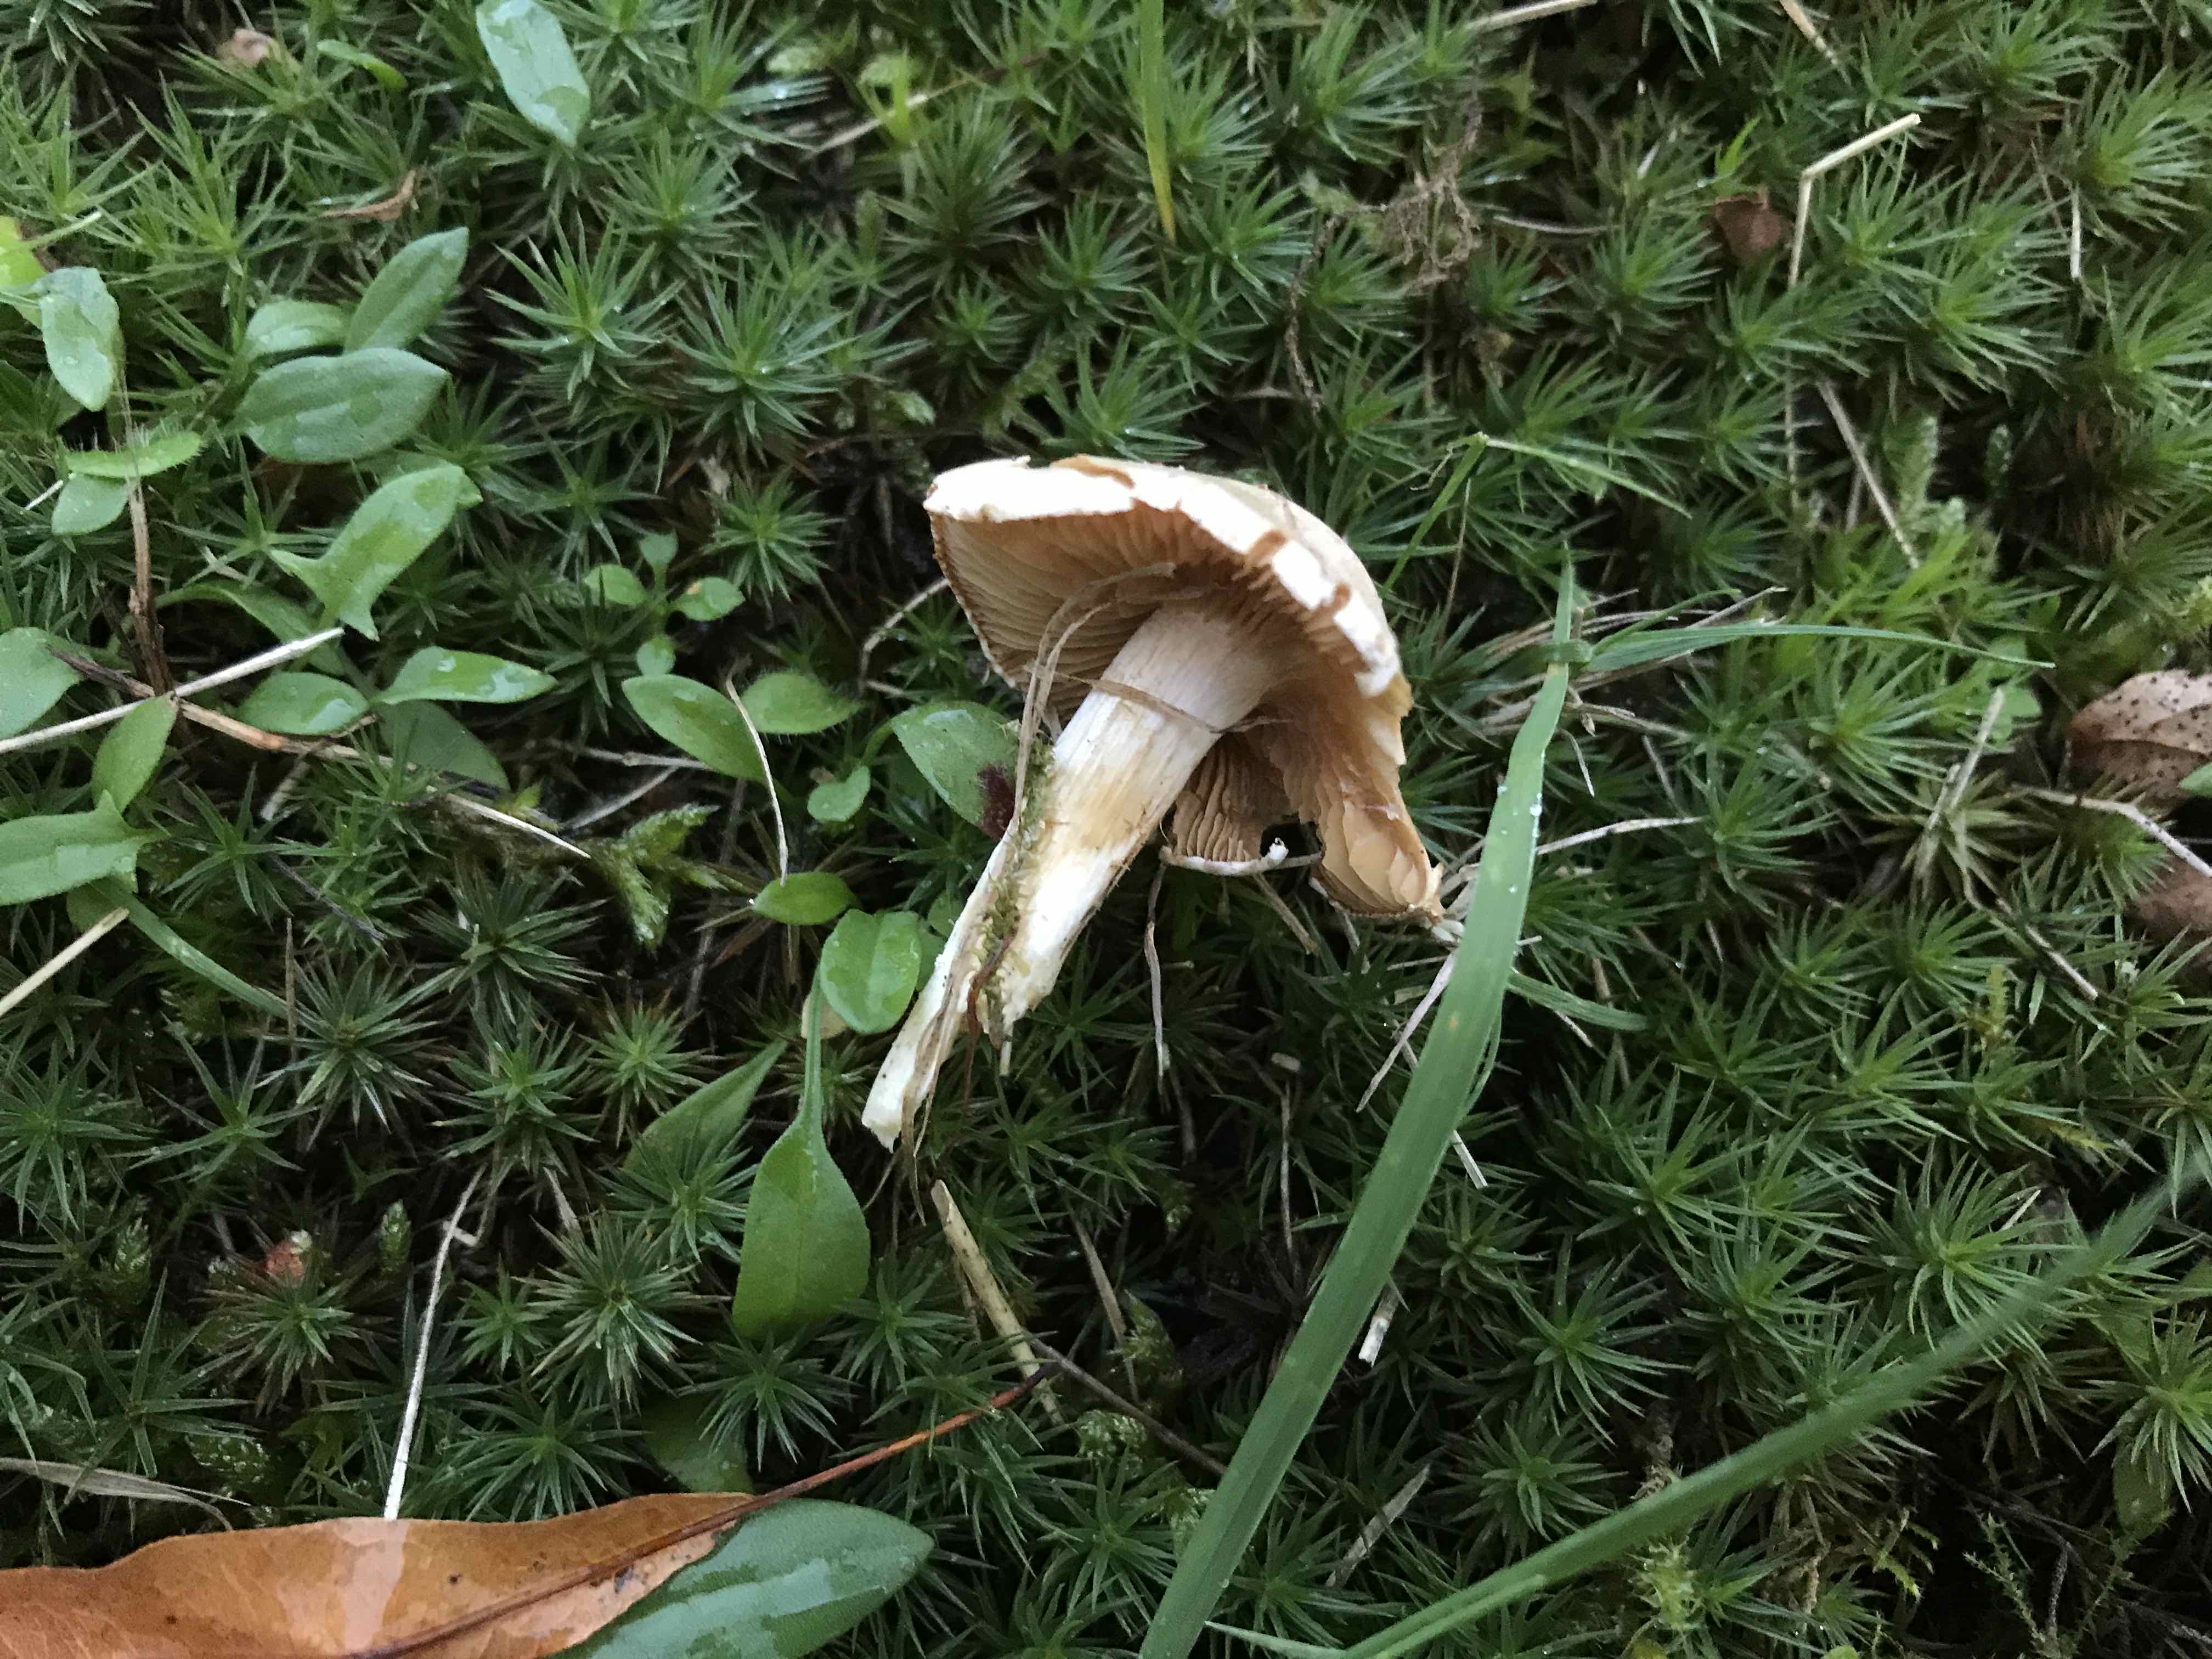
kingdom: Fungi
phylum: Basidiomycota
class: Agaricomycetes
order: Agaricales
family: Cortinariaceae
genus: Cortinarius
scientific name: Cortinarius
